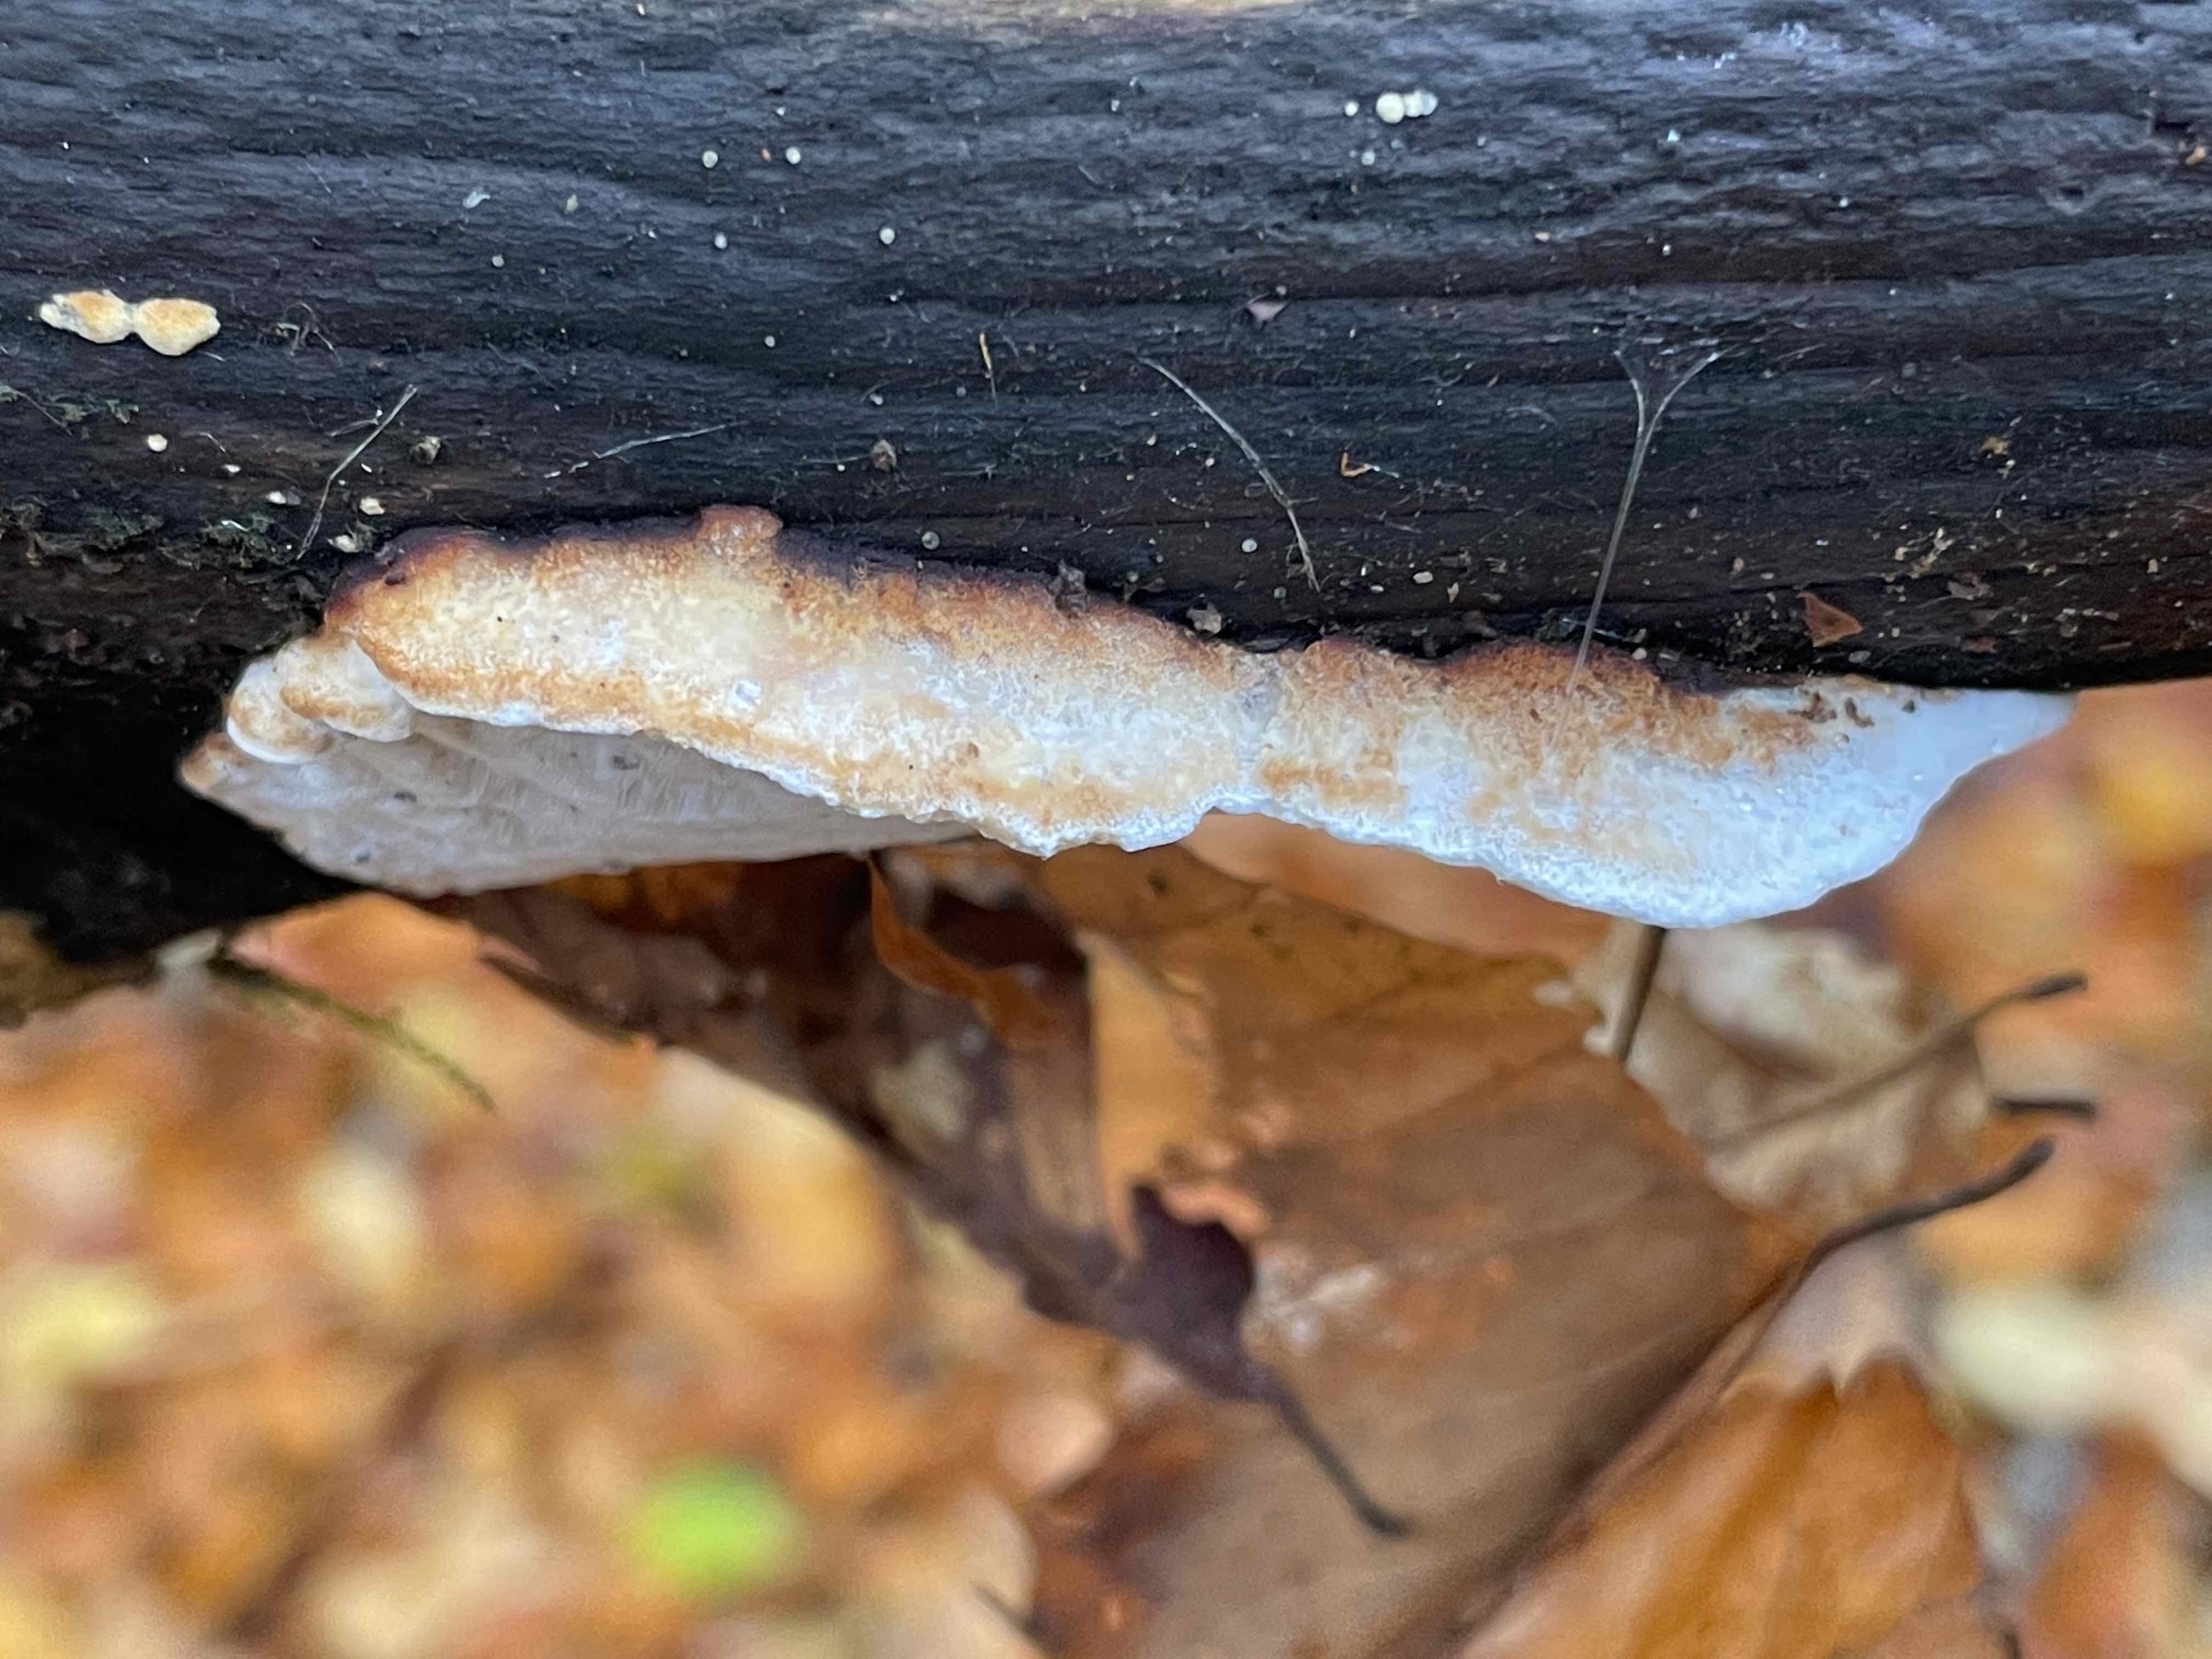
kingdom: Fungi
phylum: Basidiomycota
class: Agaricomycetes
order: Polyporales
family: Incrustoporiaceae
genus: Skeletocutis
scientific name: Skeletocutis nemoralis
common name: stor krystalporesvamp
